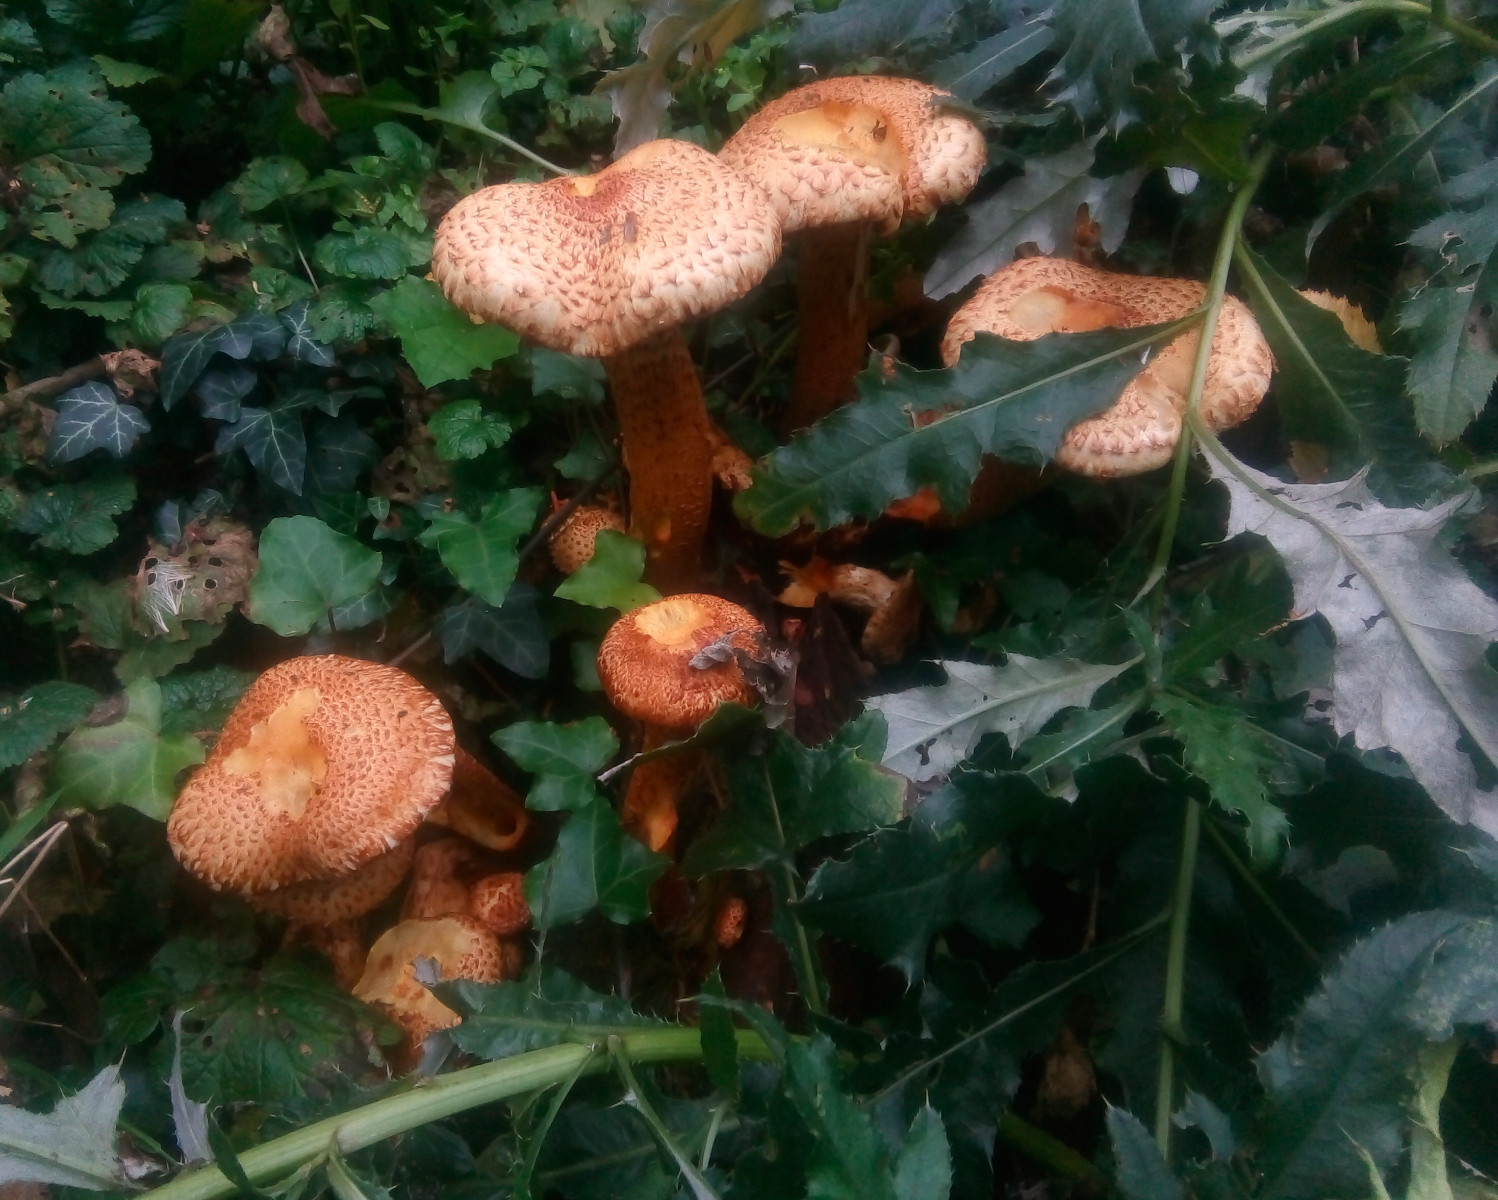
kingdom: Fungi
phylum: Basidiomycota
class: Agaricomycetes
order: Agaricales
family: Strophariaceae
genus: Pholiota
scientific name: Pholiota squarrosa
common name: krumskællet skælhat
